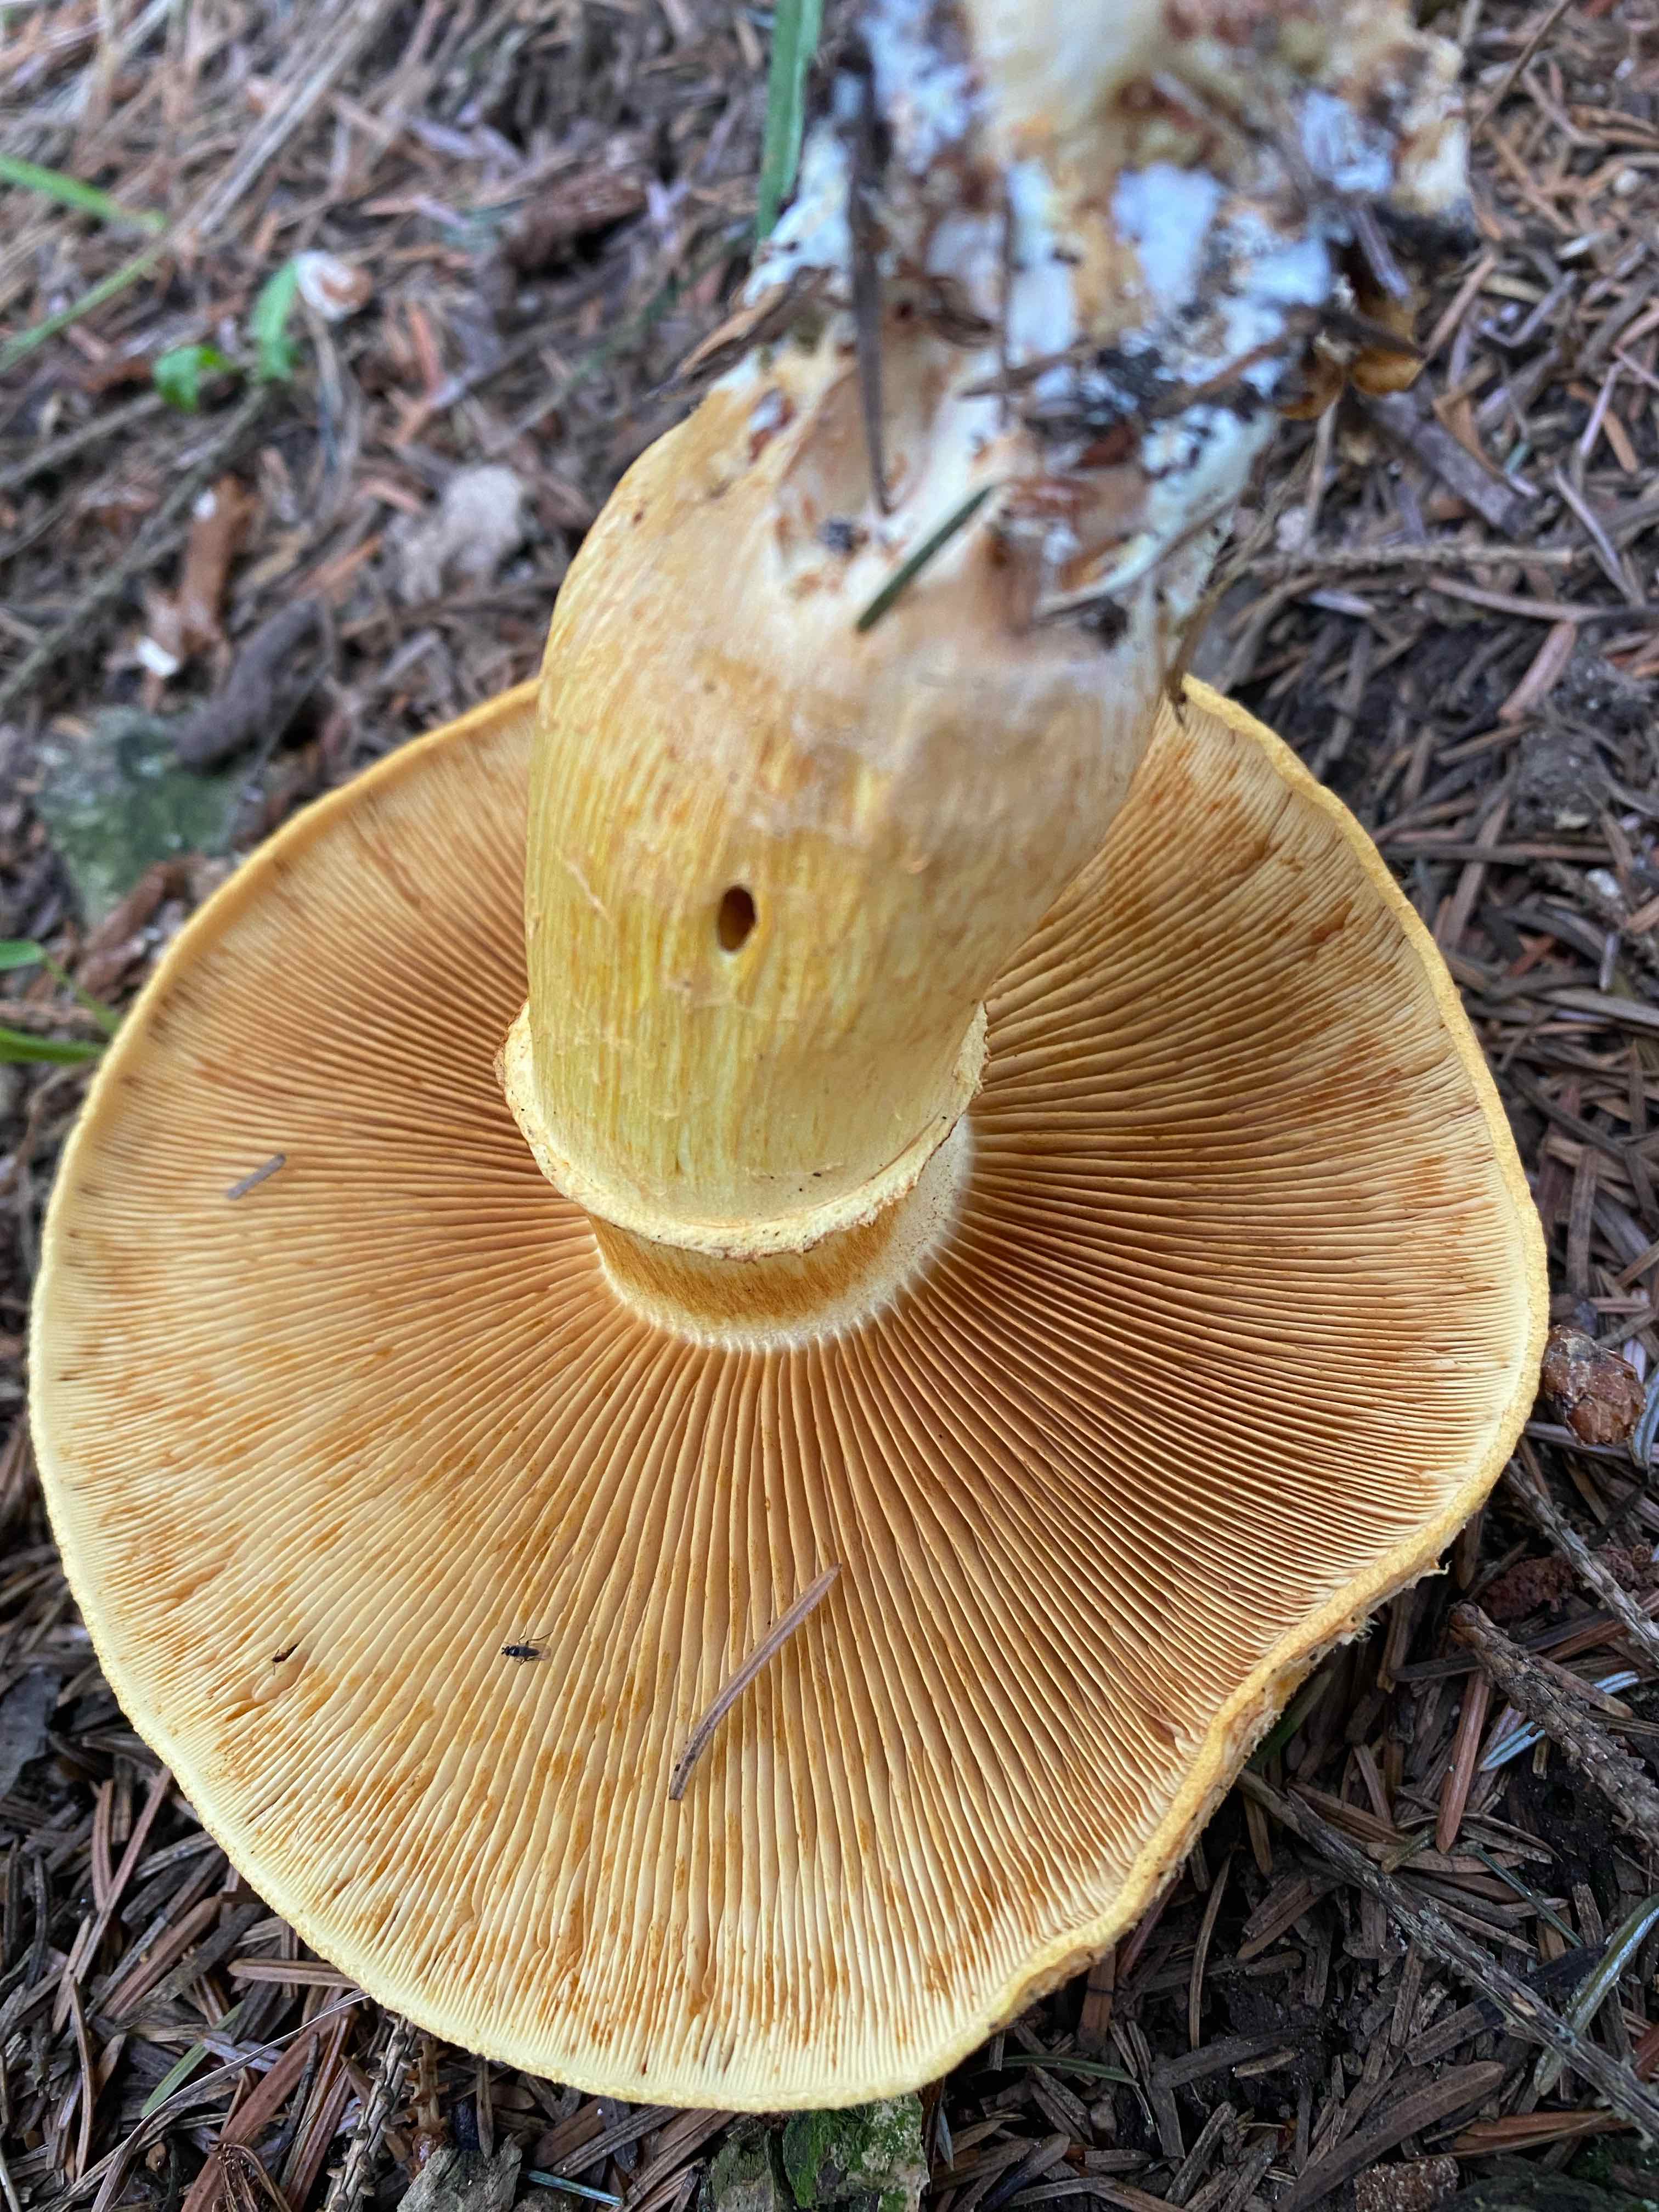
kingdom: Fungi
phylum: Basidiomycota
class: Agaricomycetes
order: Agaricales
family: Hymenogastraceae
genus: Gymnopilus
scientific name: Gymnopilus spectabilis
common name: fibret flammehat
